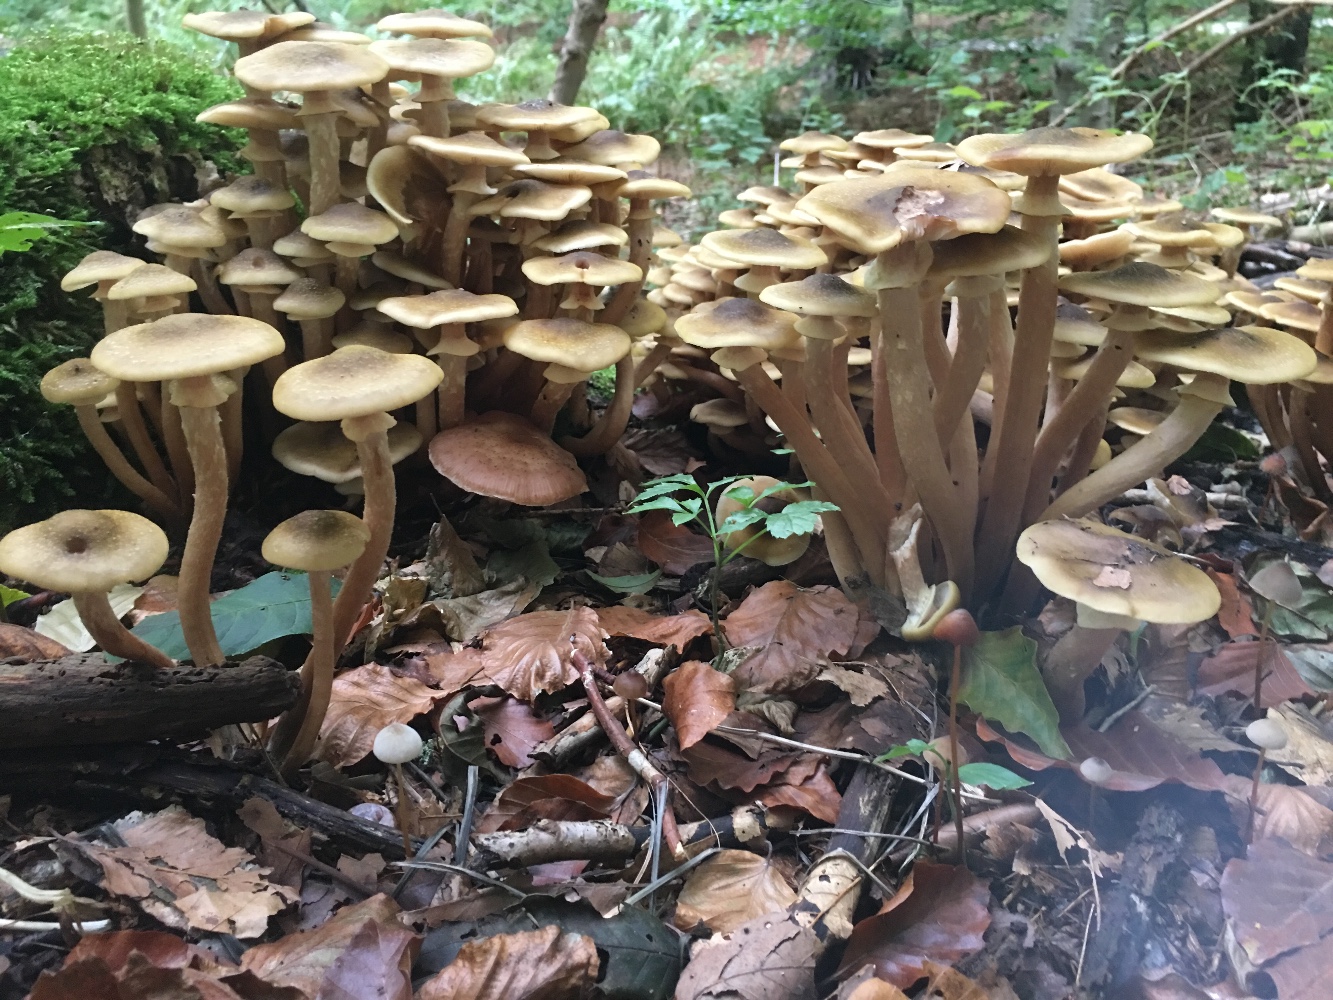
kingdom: Fungi
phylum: Basidiomycota
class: Agaricomycetes
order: Agaricales
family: Physalacriaceae
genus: Armillaria
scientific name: Armillaria mellea
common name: ægte honningsvamp
